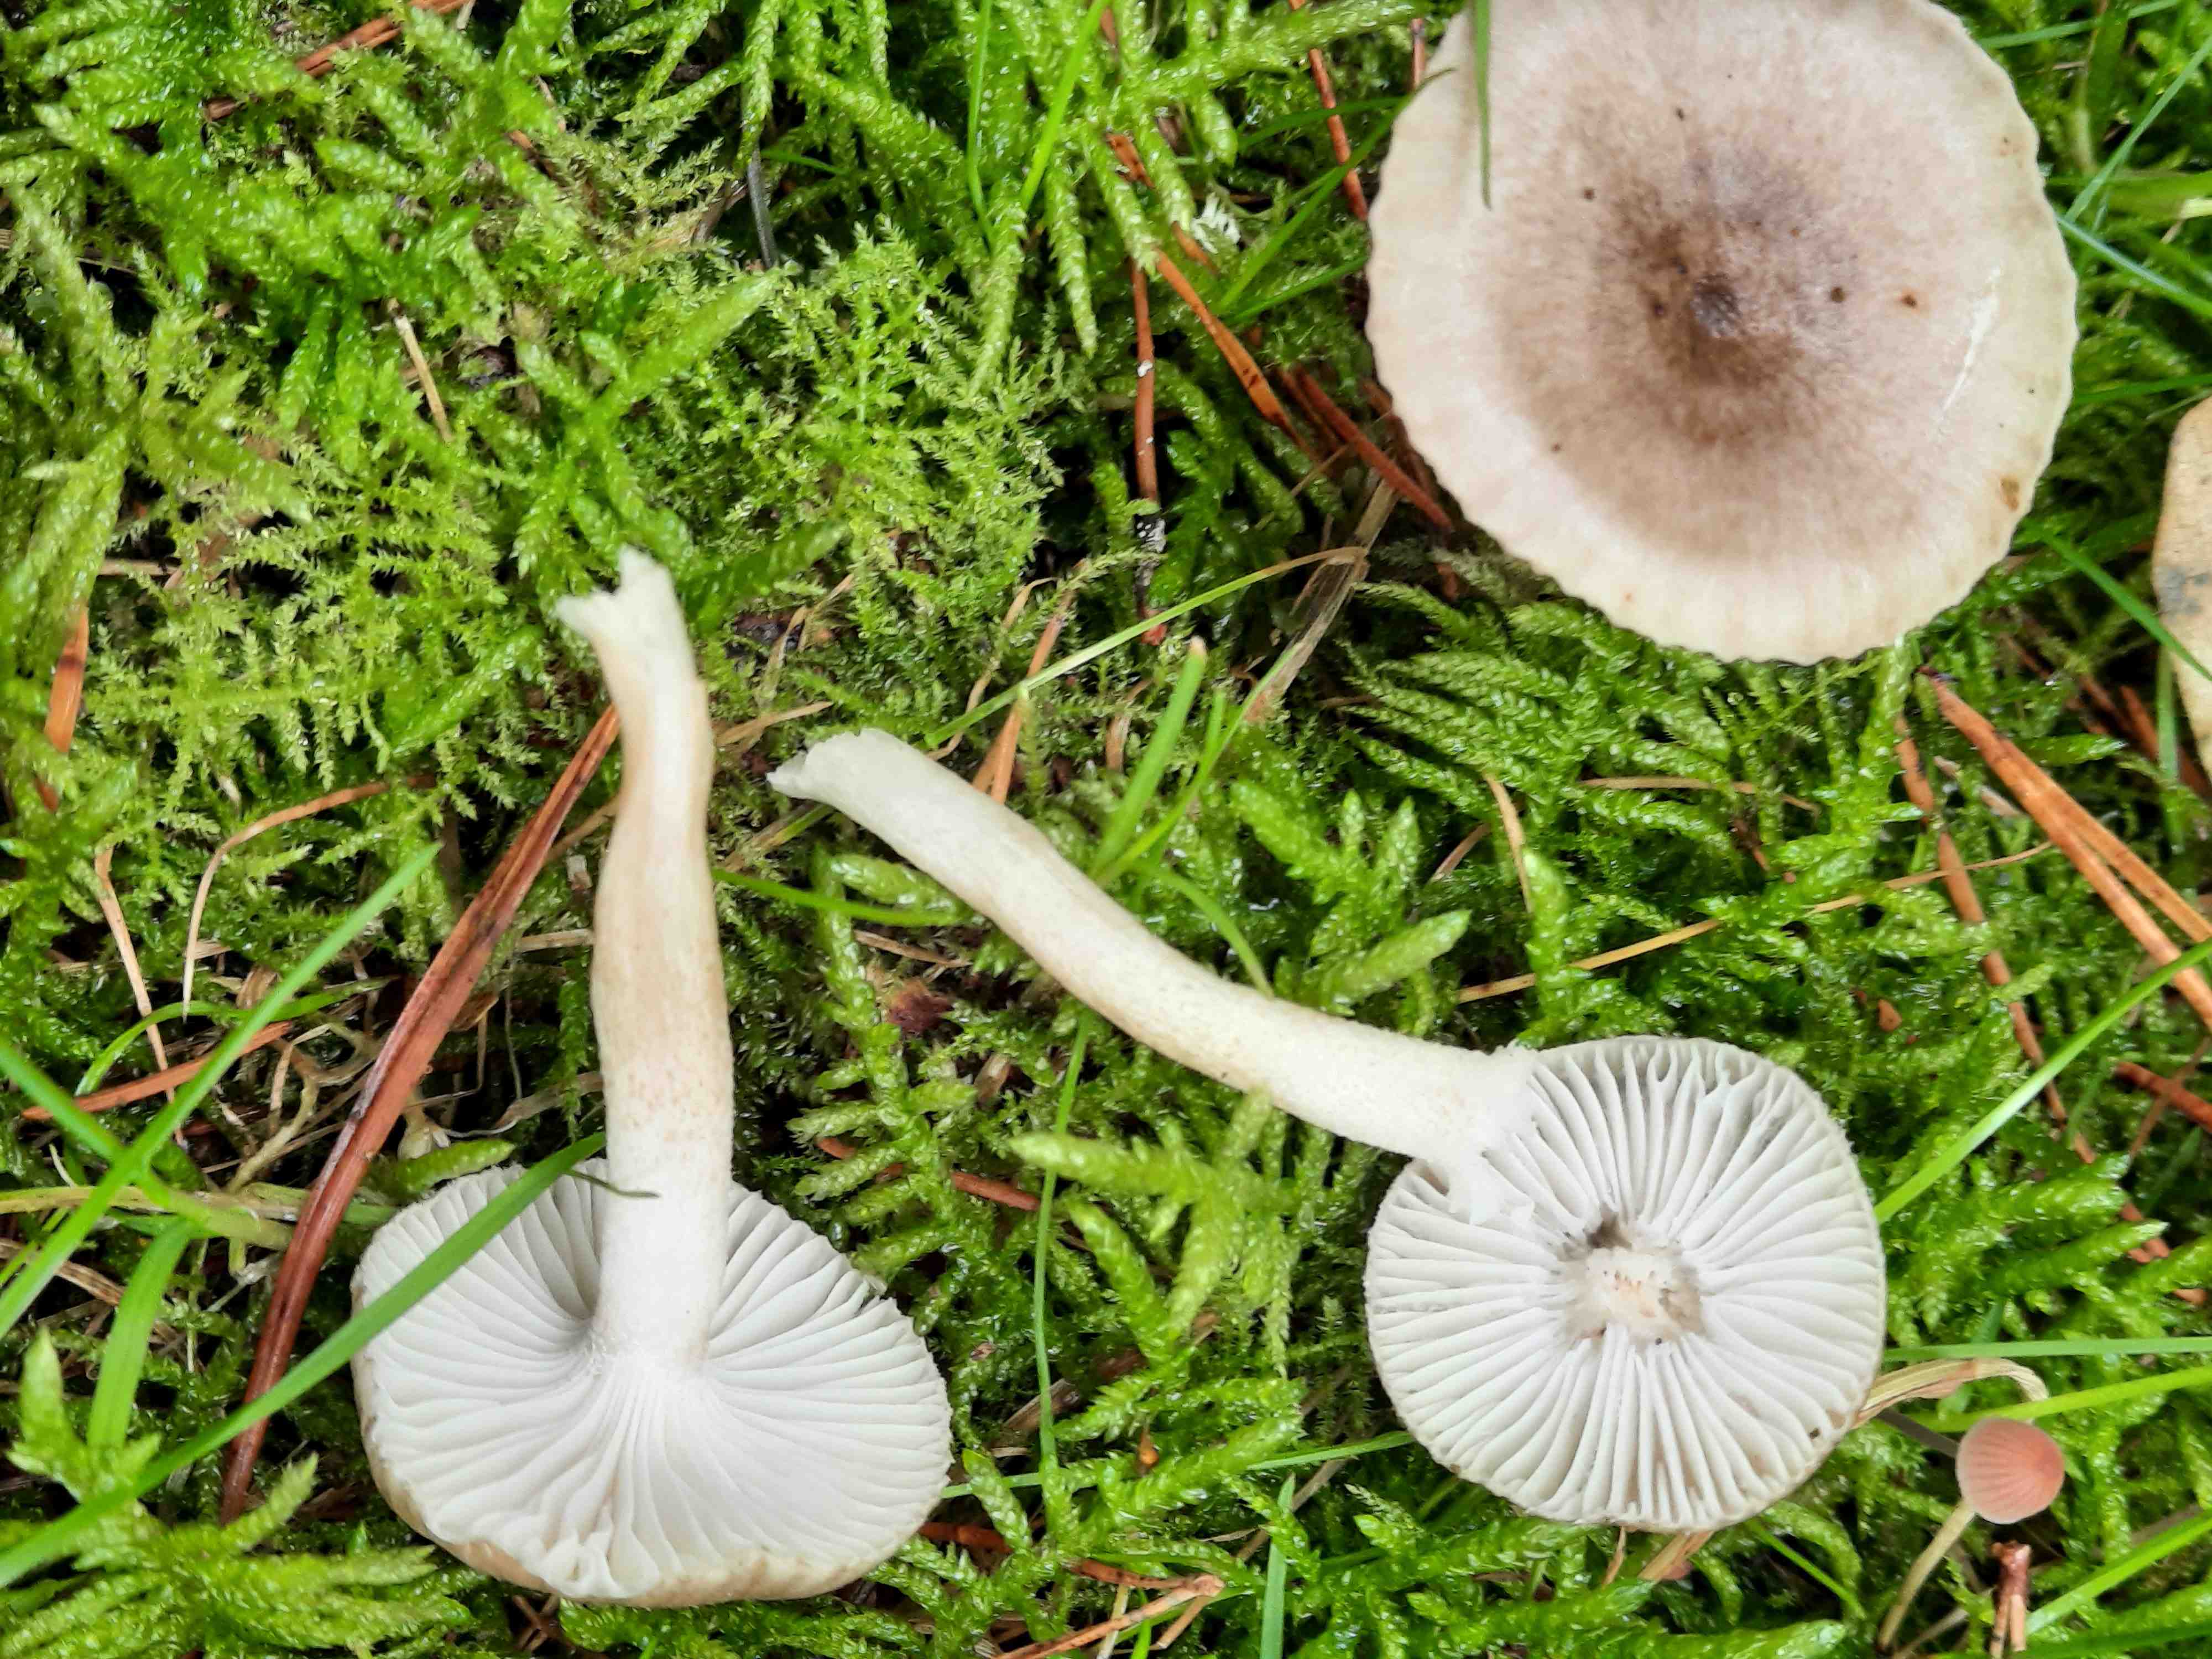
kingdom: Fungi
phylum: Basidiomycota
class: Agaricomycetes
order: Agaricales
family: Hygrophoraceae
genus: Hygrophorus
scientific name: Hygrophorus pustulatus
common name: mørkprikket sneglehat
